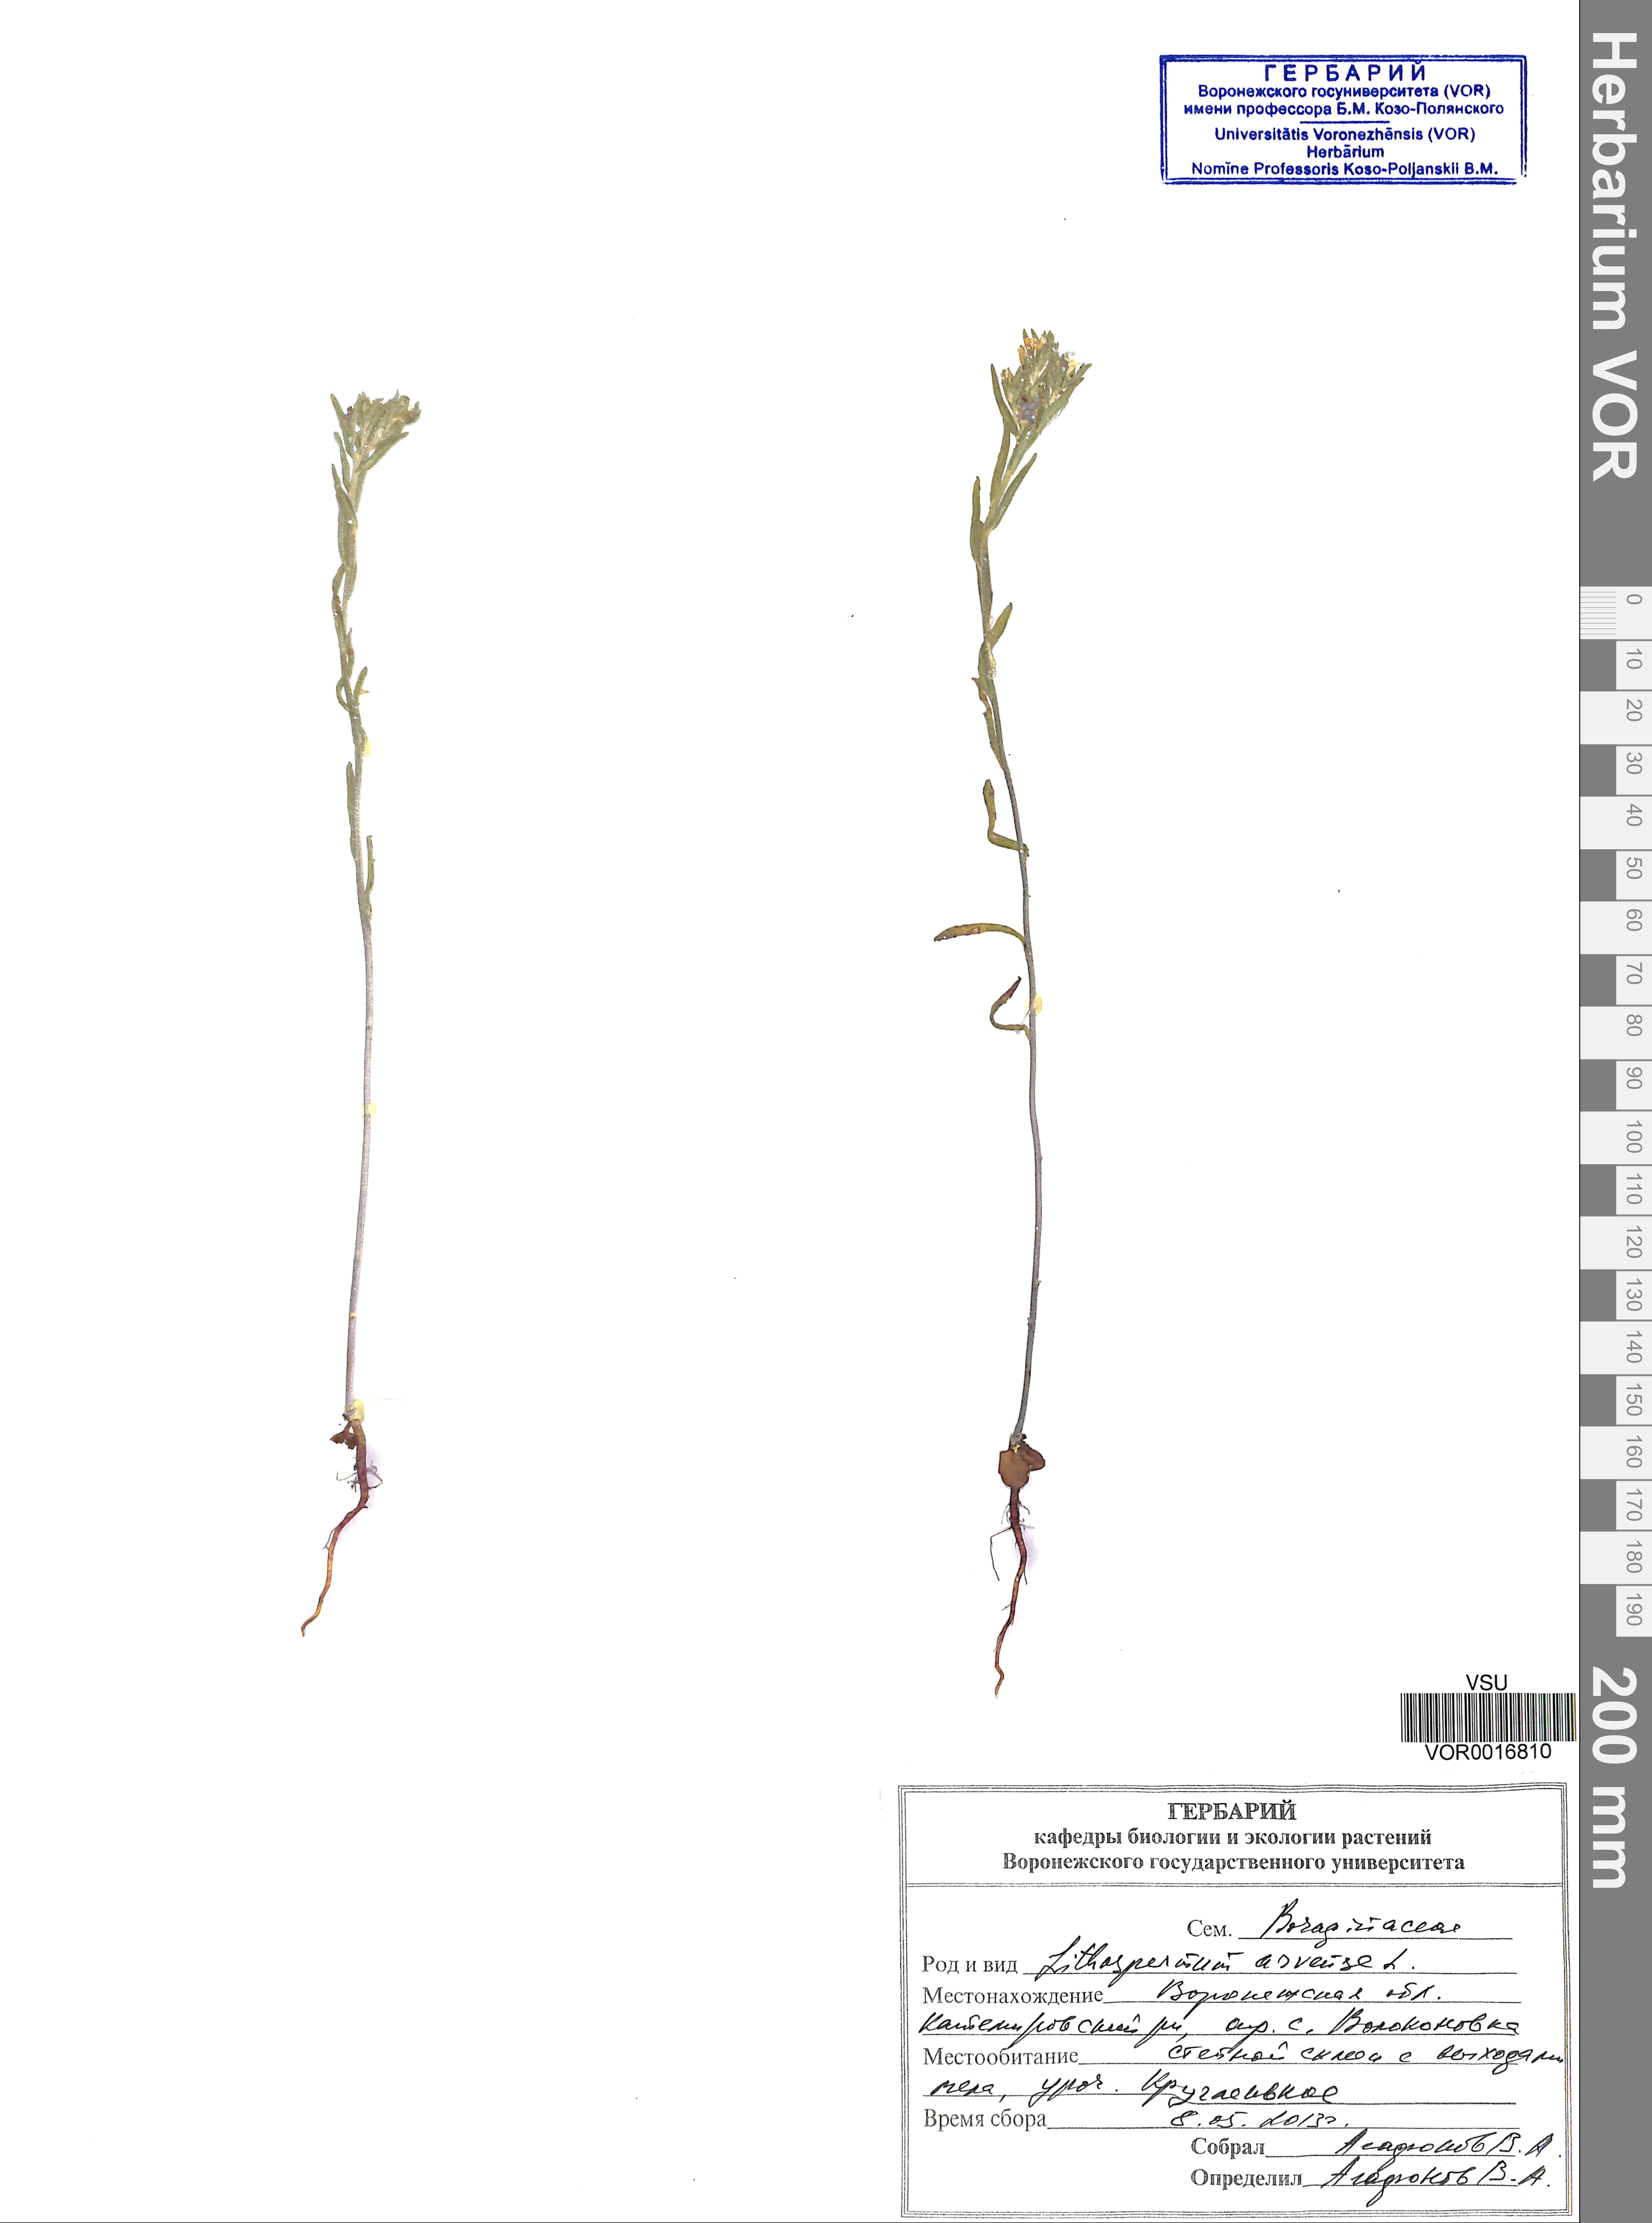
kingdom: Plantae
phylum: Tracheophyta
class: Magnoliopsida
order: Boraginales
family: Boraginaceae
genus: Buglossoides
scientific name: Buglossoides arvensis
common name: Corn gromwell
